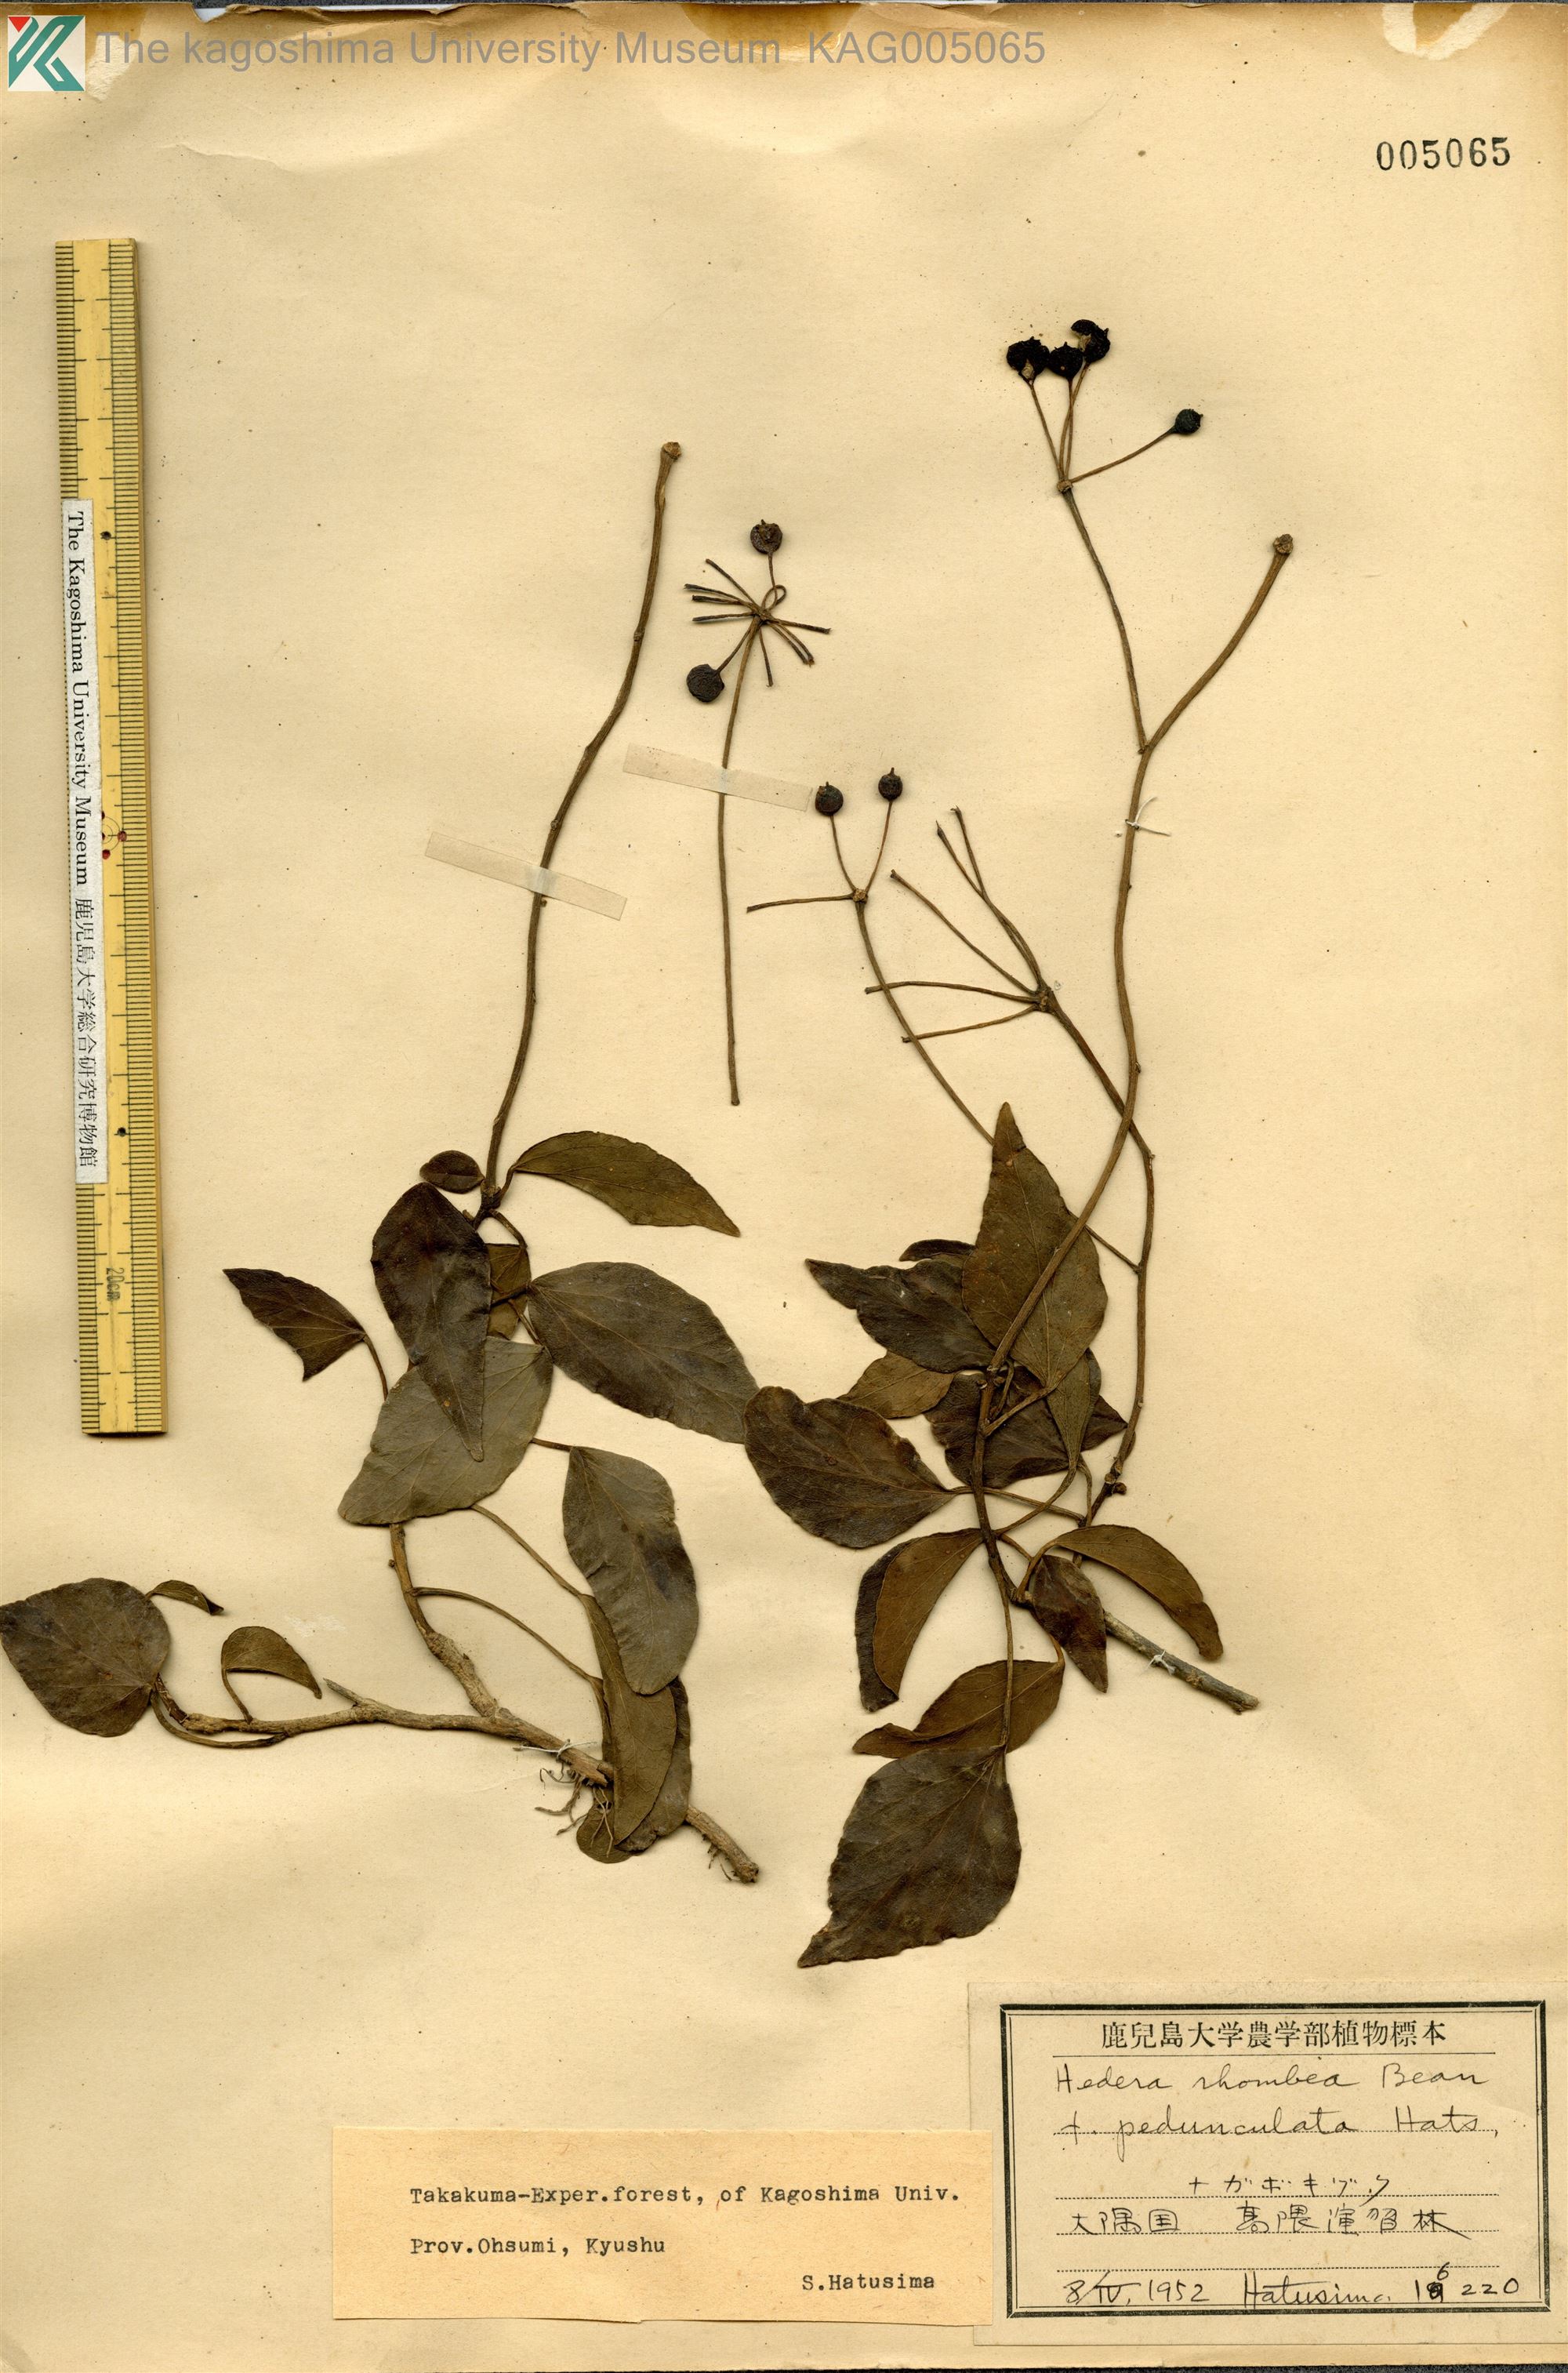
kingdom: Plantae
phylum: Tracheophyta
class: Magnoliopsida
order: Apiales
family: Araliaceae
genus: Hedera
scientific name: Hedera rhombea
